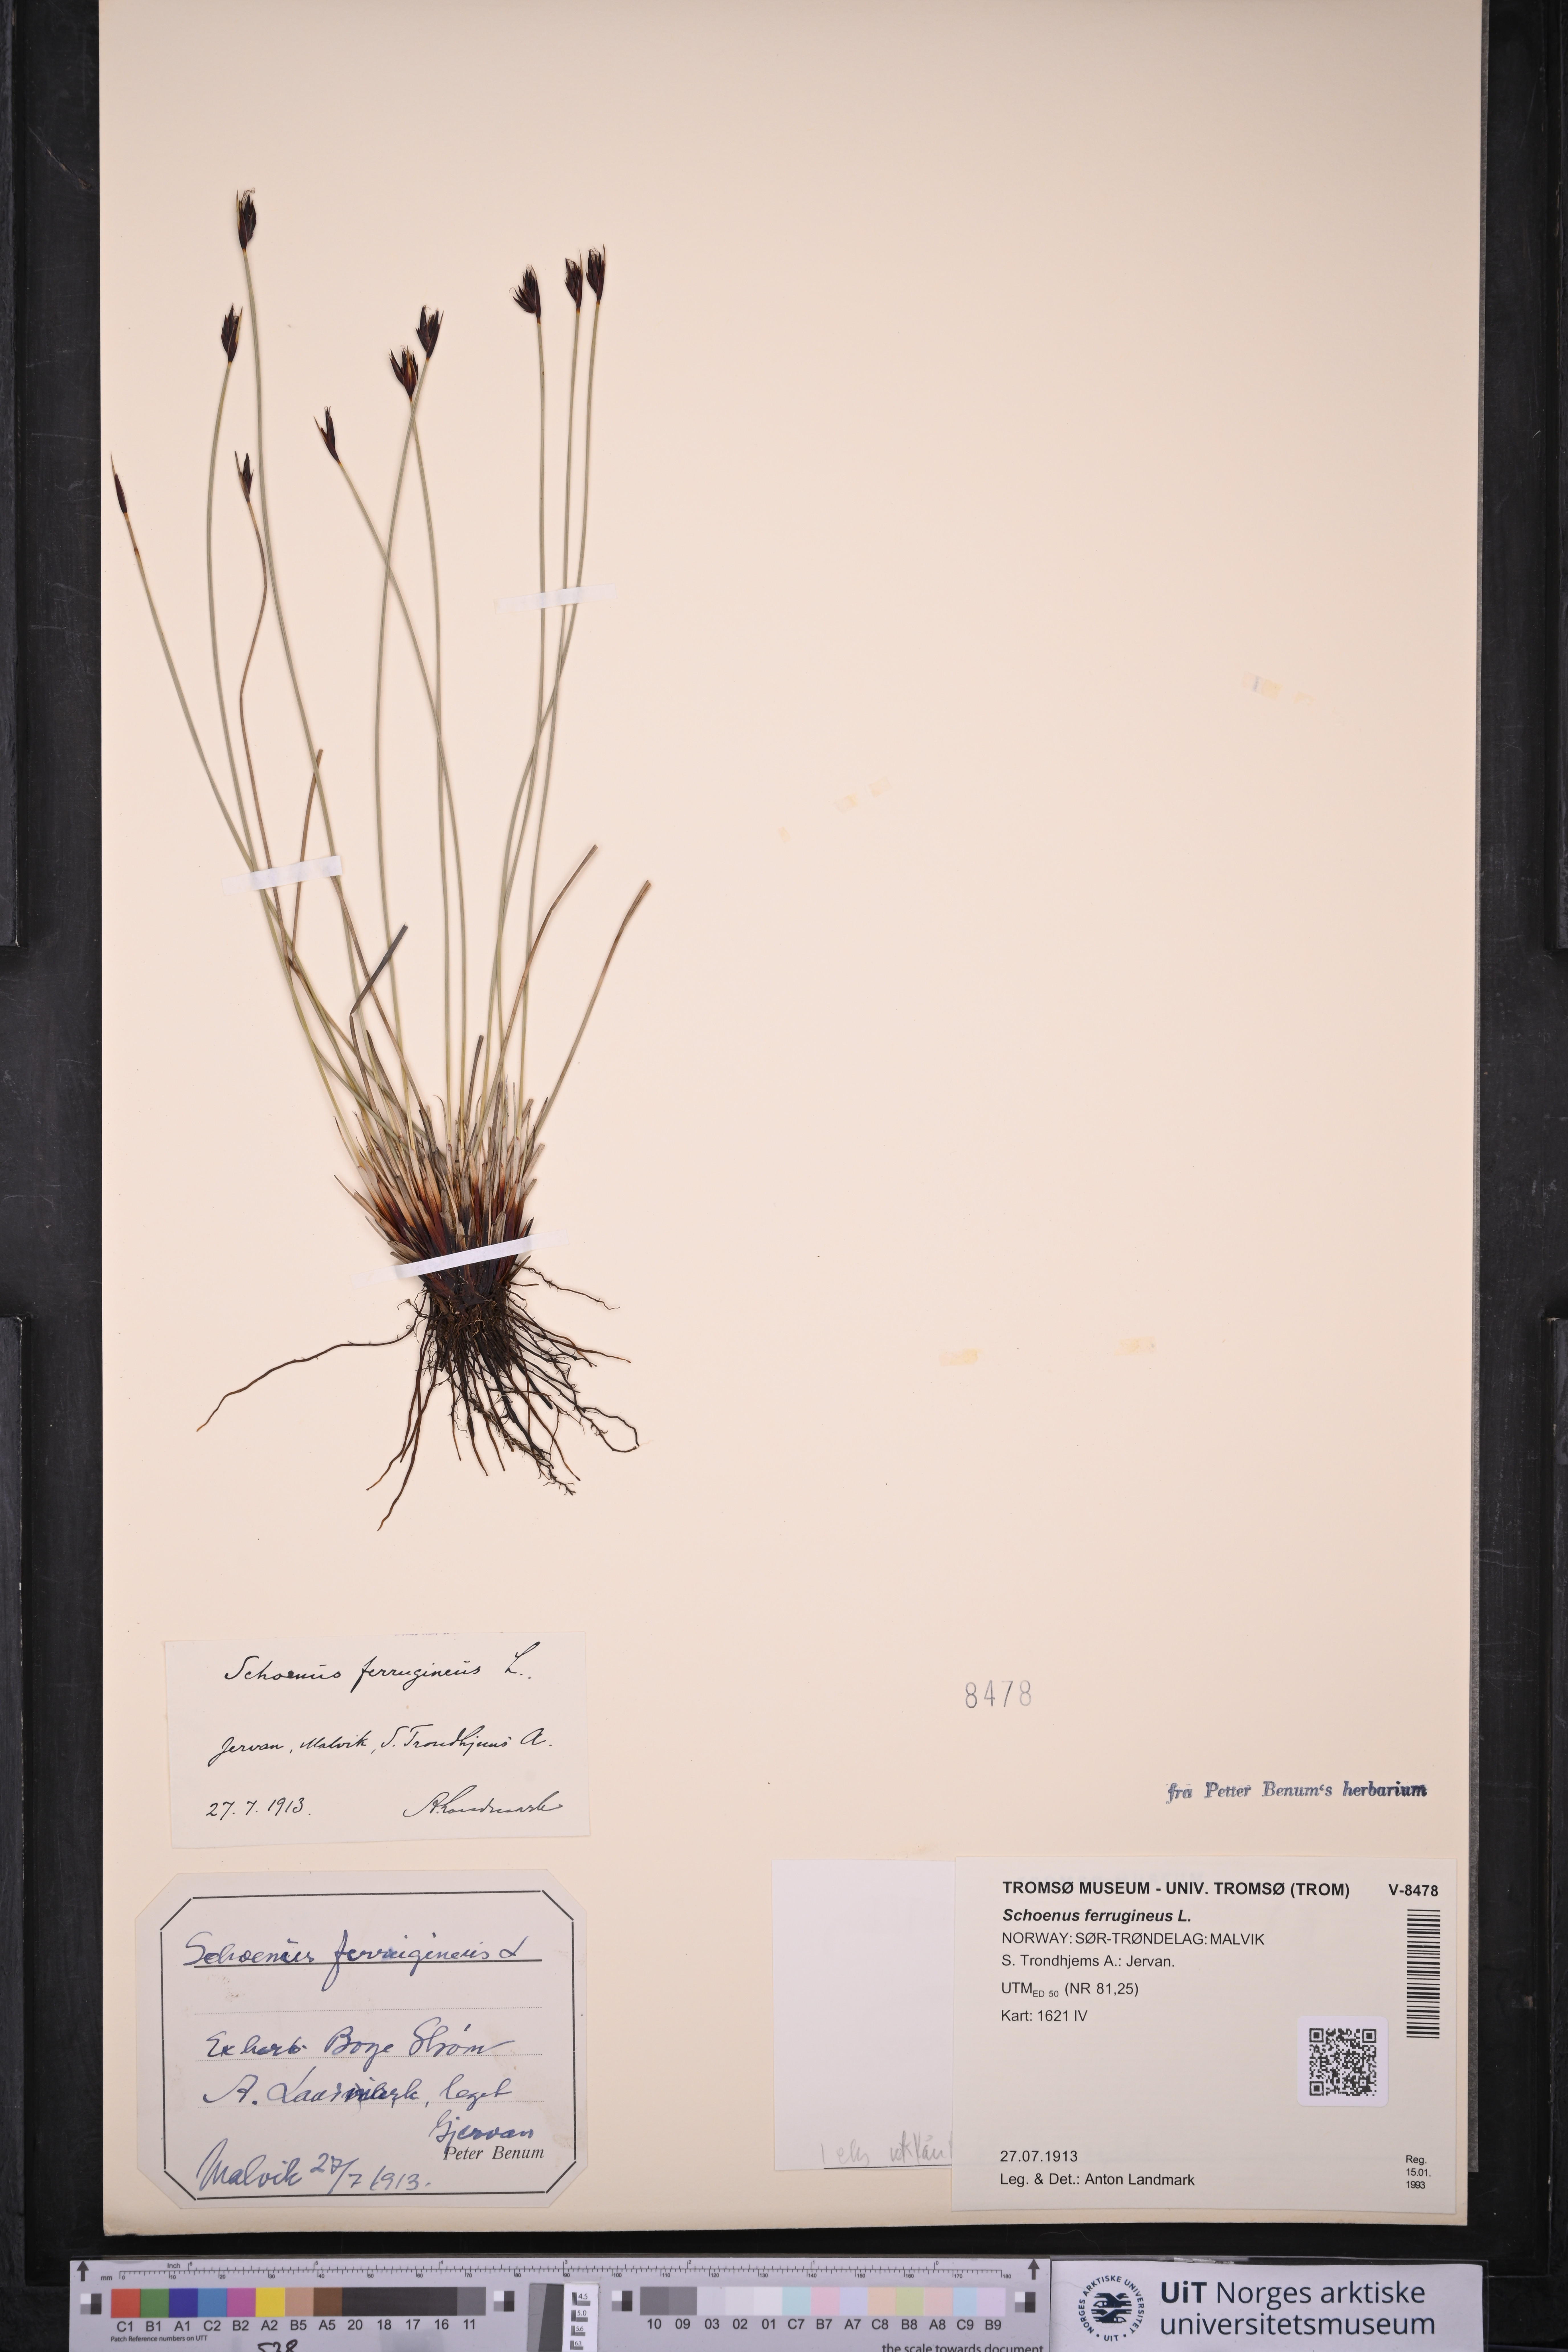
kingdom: Plantae
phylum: Tracheophyta
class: Liliopsida
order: Poales
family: Cyperaceae
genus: Schoenus
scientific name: Schoenus ferrugineus
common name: Brown bog-rush
